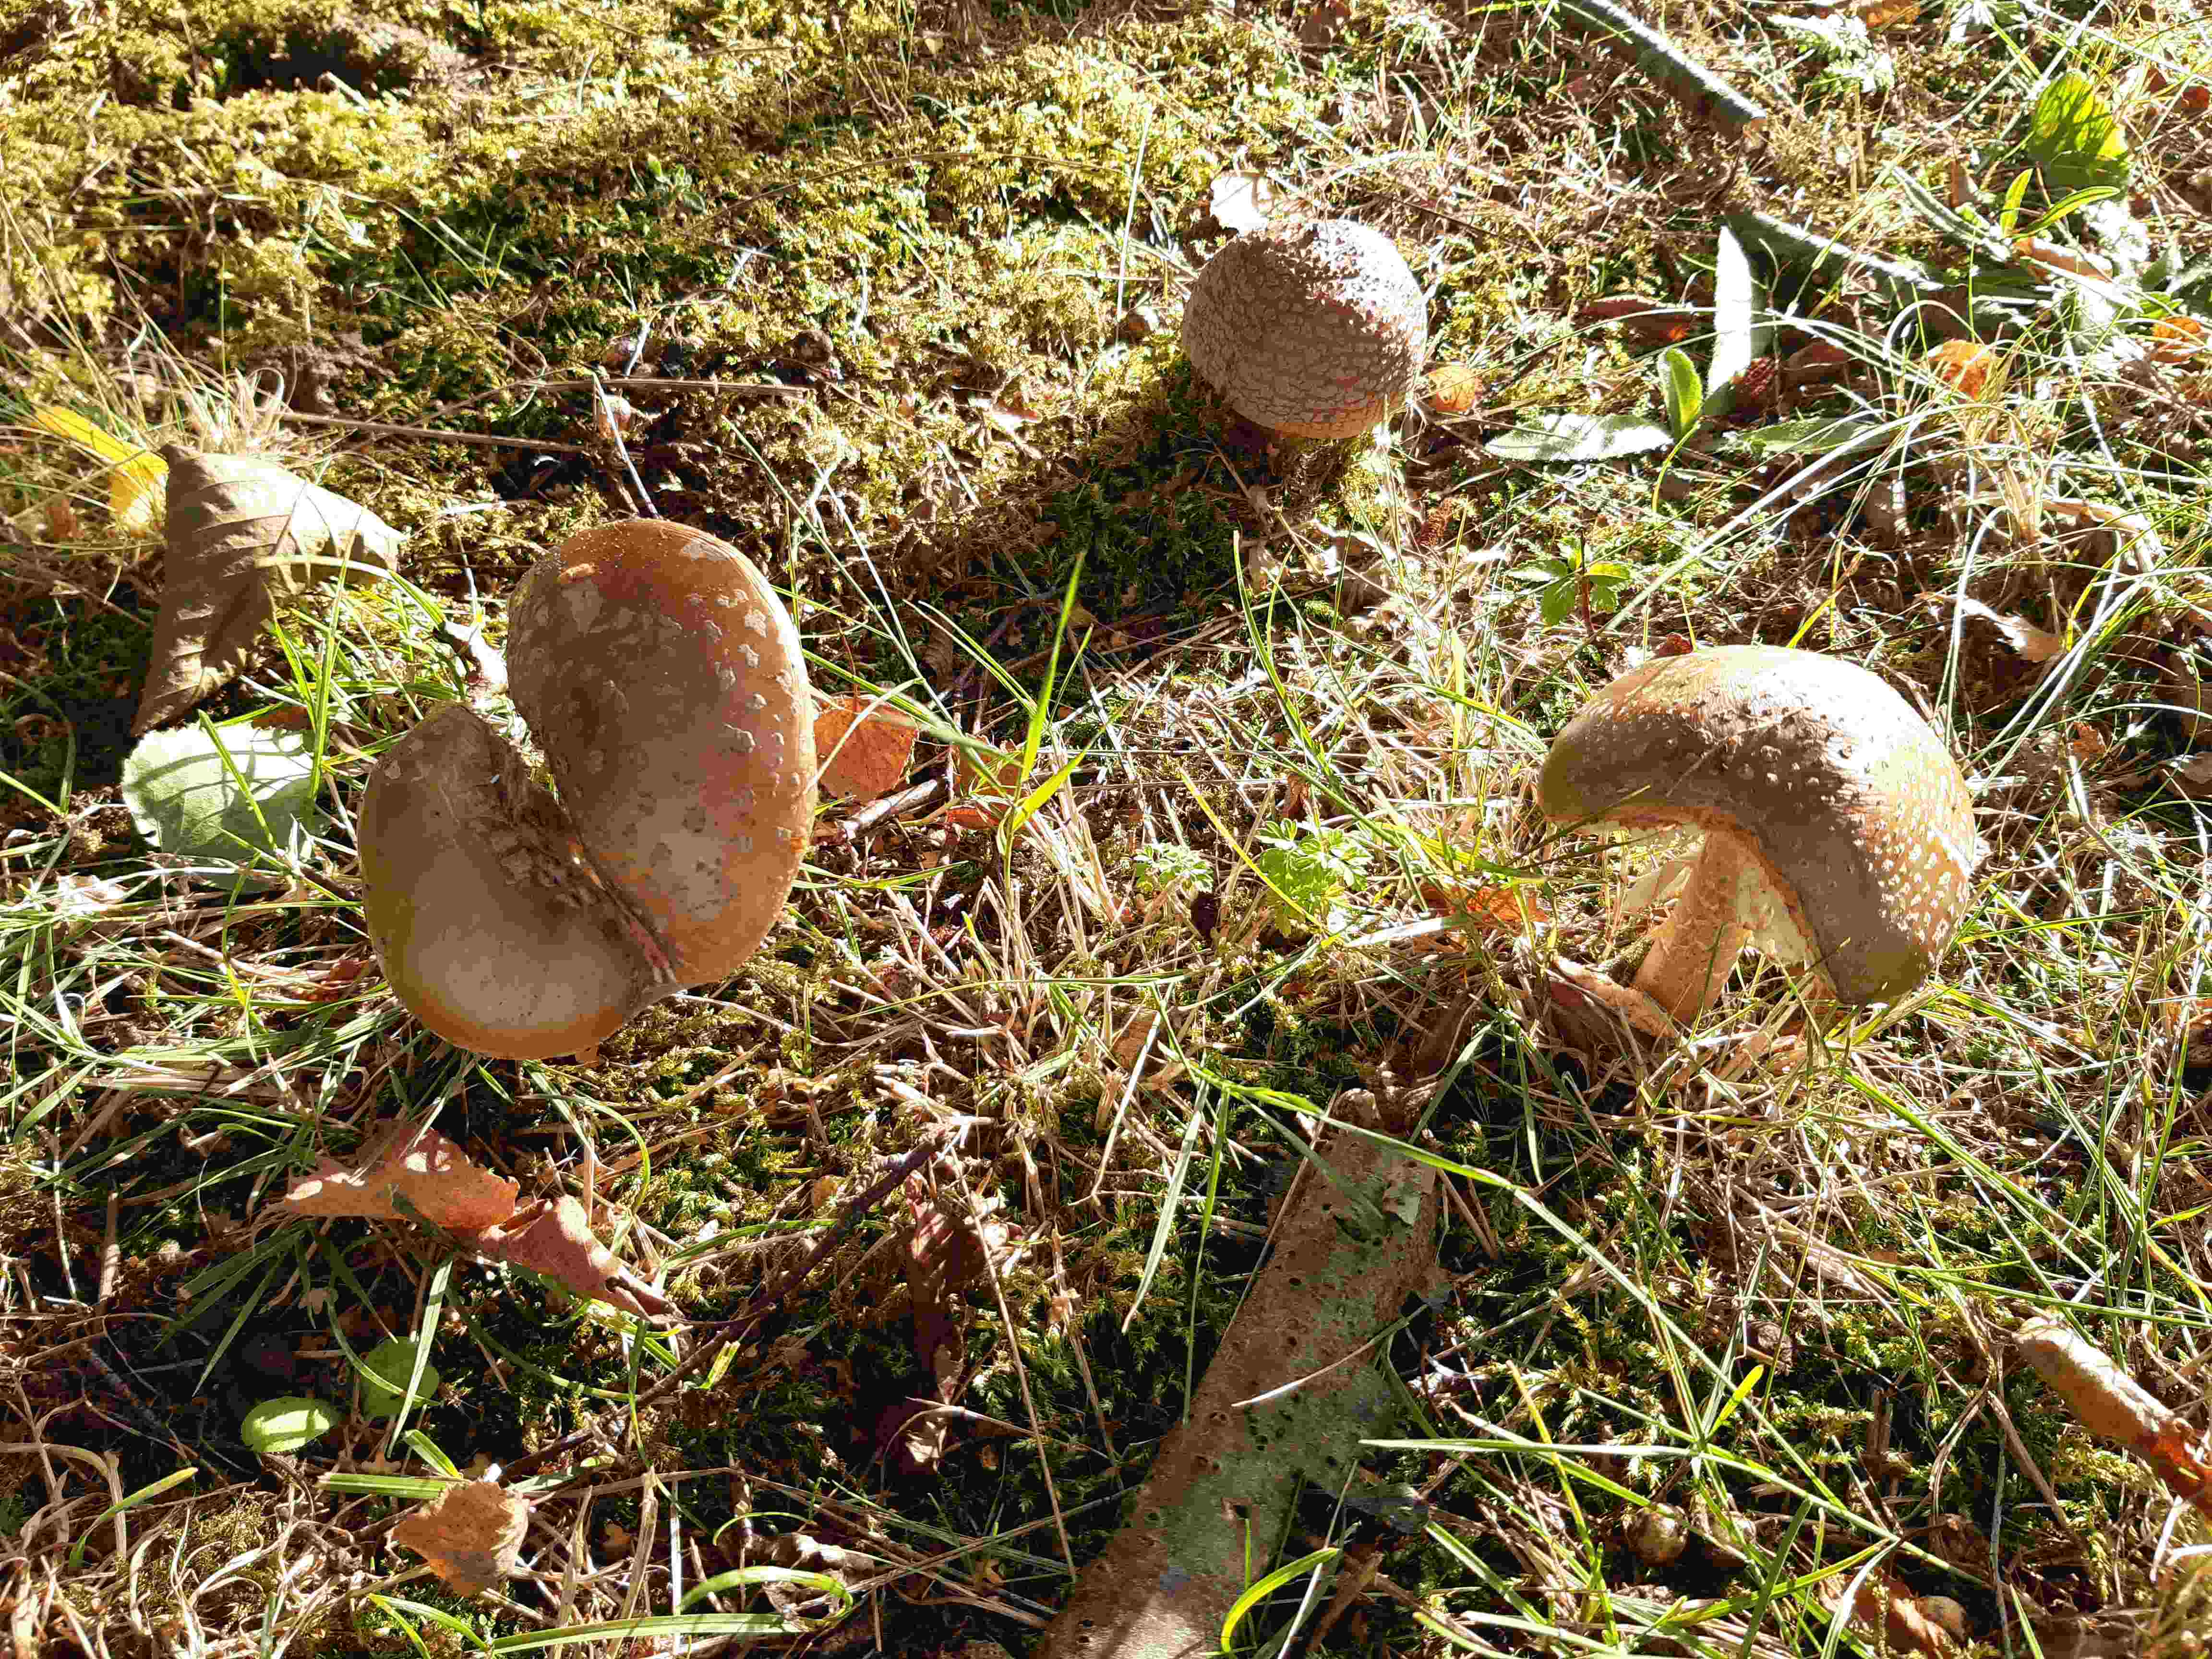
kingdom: Fungi
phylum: Basidiomycota
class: Agaricomycetes
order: Agaricales
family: Amanitaceae
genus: Amanita
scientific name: Amanita rubescens
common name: rødmende fluesvamp
